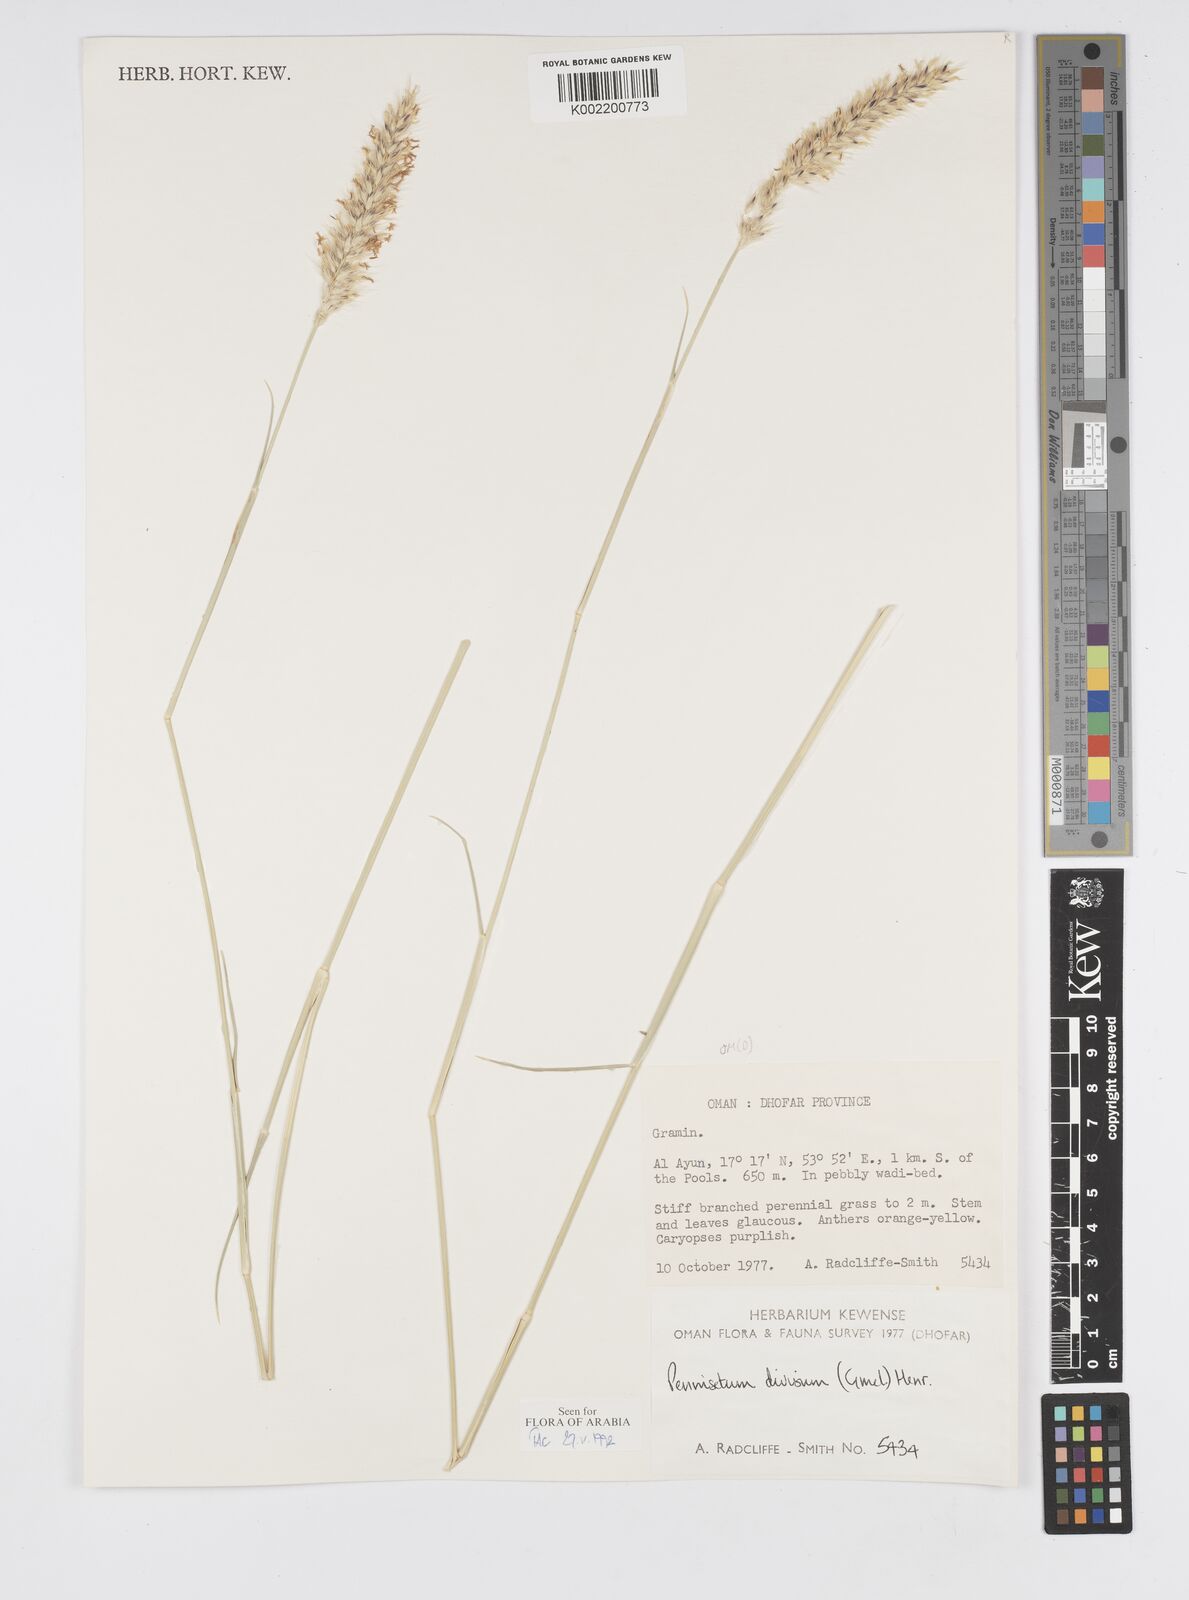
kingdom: Plantae
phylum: Tracheophyta
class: Liliopsida
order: Poales
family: Poaceae
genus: Cenchrus
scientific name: Cenchrus divisus
